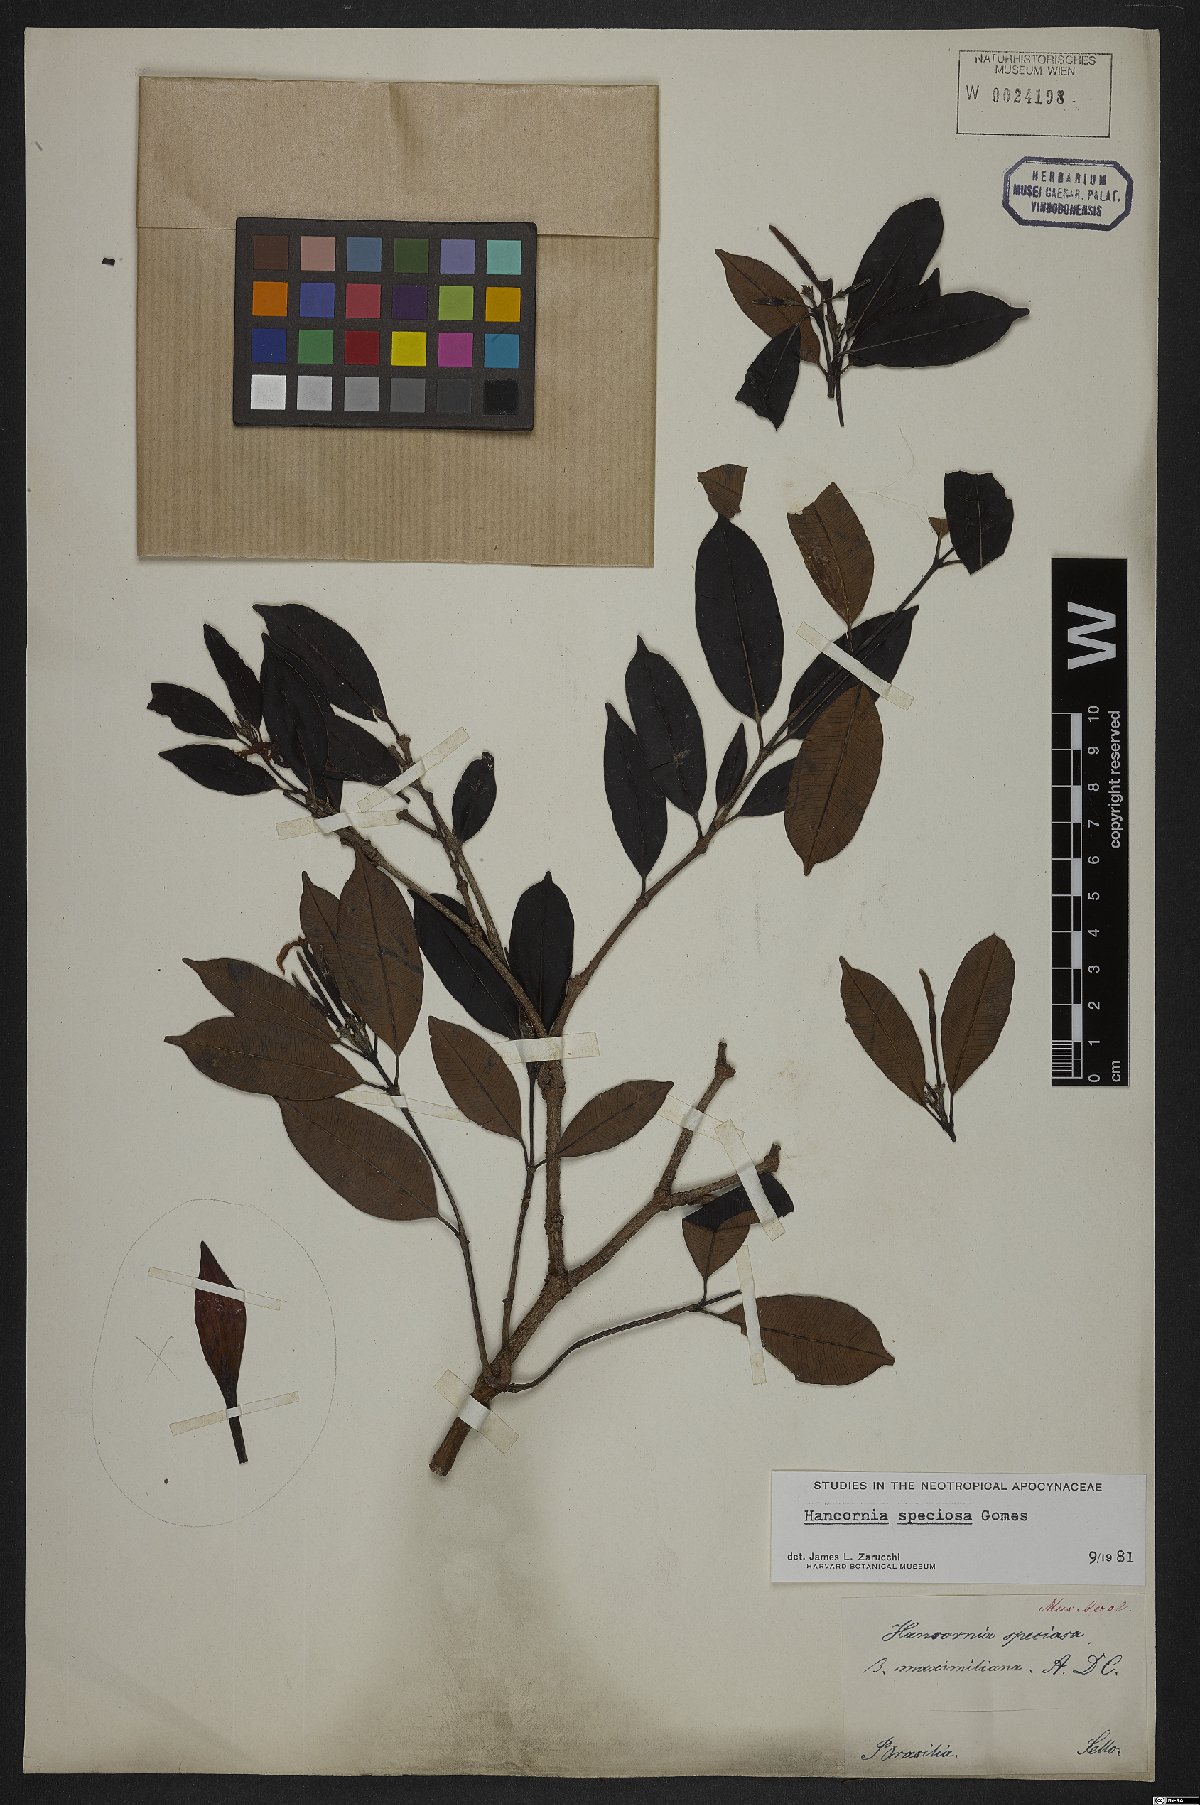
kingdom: Plantae
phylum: Tracheophyta
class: Magnoliopsida
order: Gentianales
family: Apocynaceae
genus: Hancornia
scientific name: Hancornia speciosa
